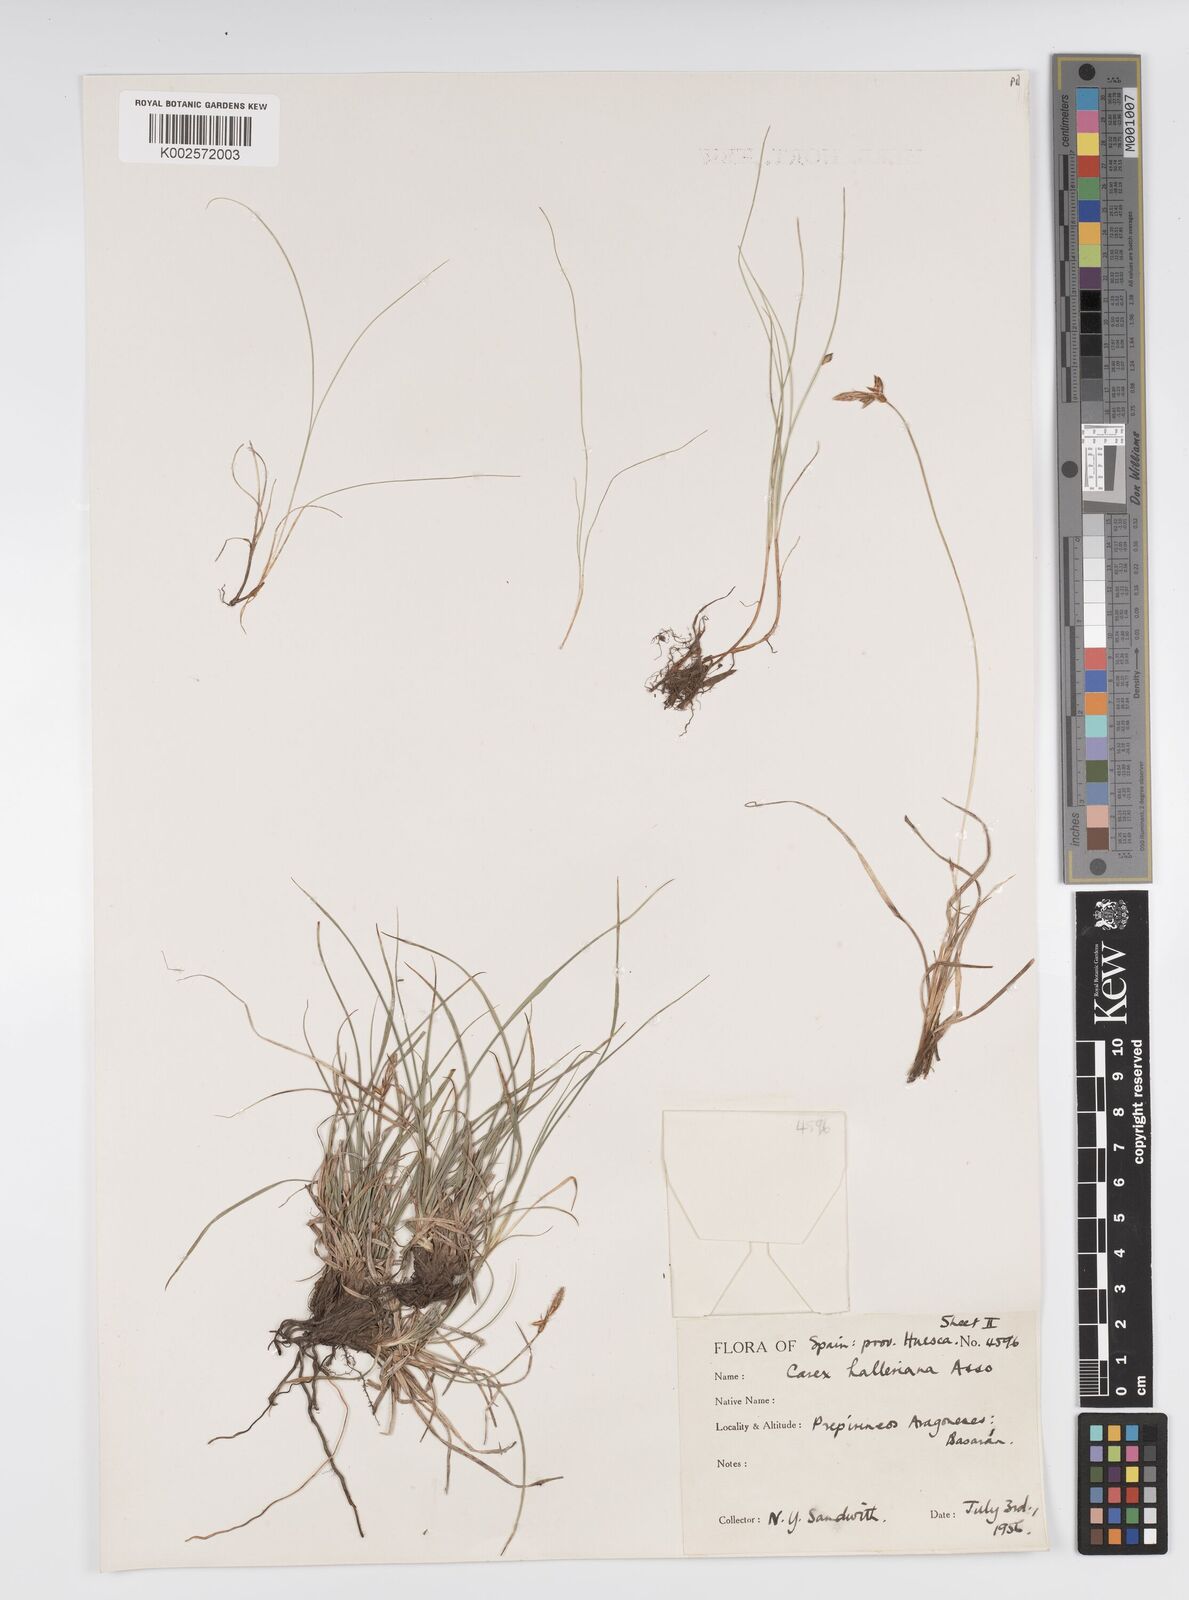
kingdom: Plantae
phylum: Tracheophyta
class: Liliopsida
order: Poales
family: Cyperaceae
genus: Carex
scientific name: Carex halleriana
